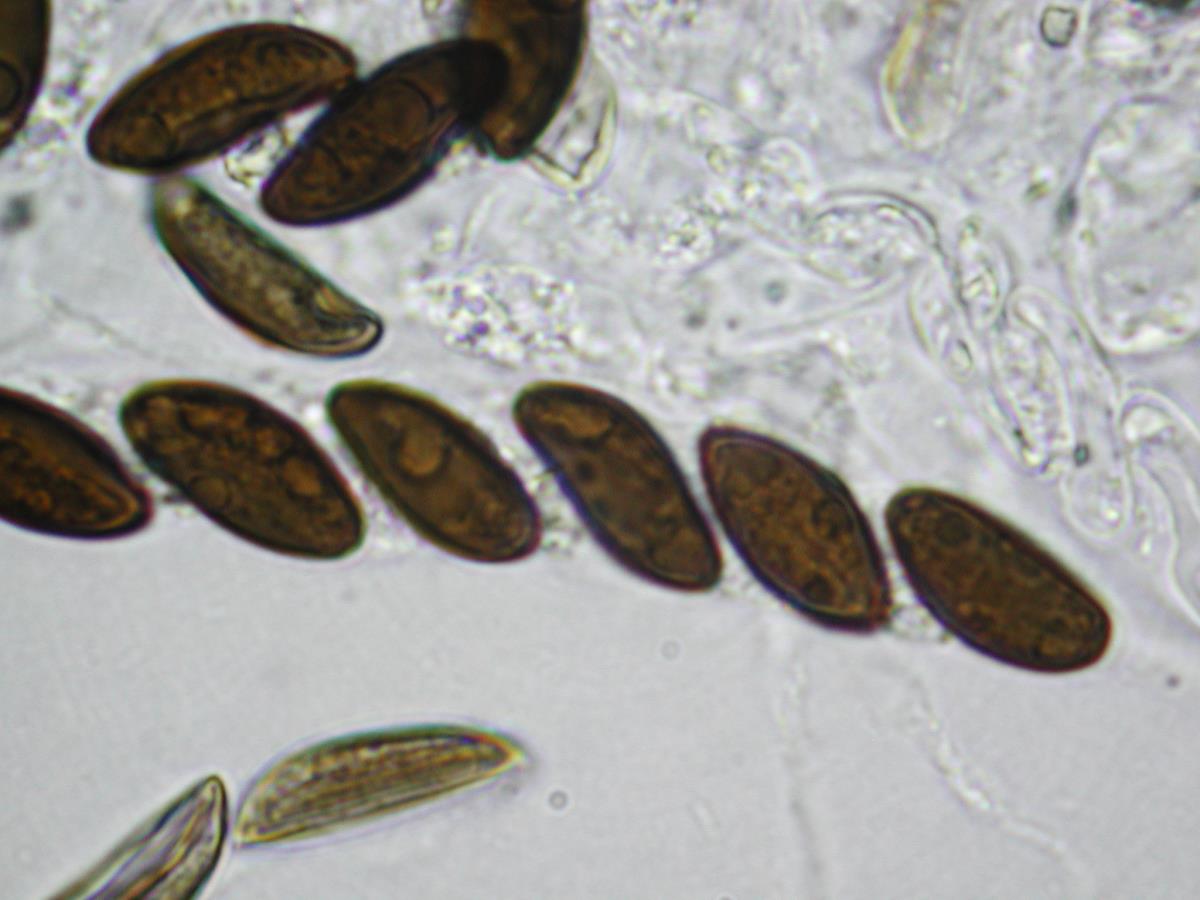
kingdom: Fungi
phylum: Ascomycota
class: Sordariomycetes
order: Xylariales
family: Hypoxylaceae
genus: Daldinia
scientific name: Daldinia dennisii
